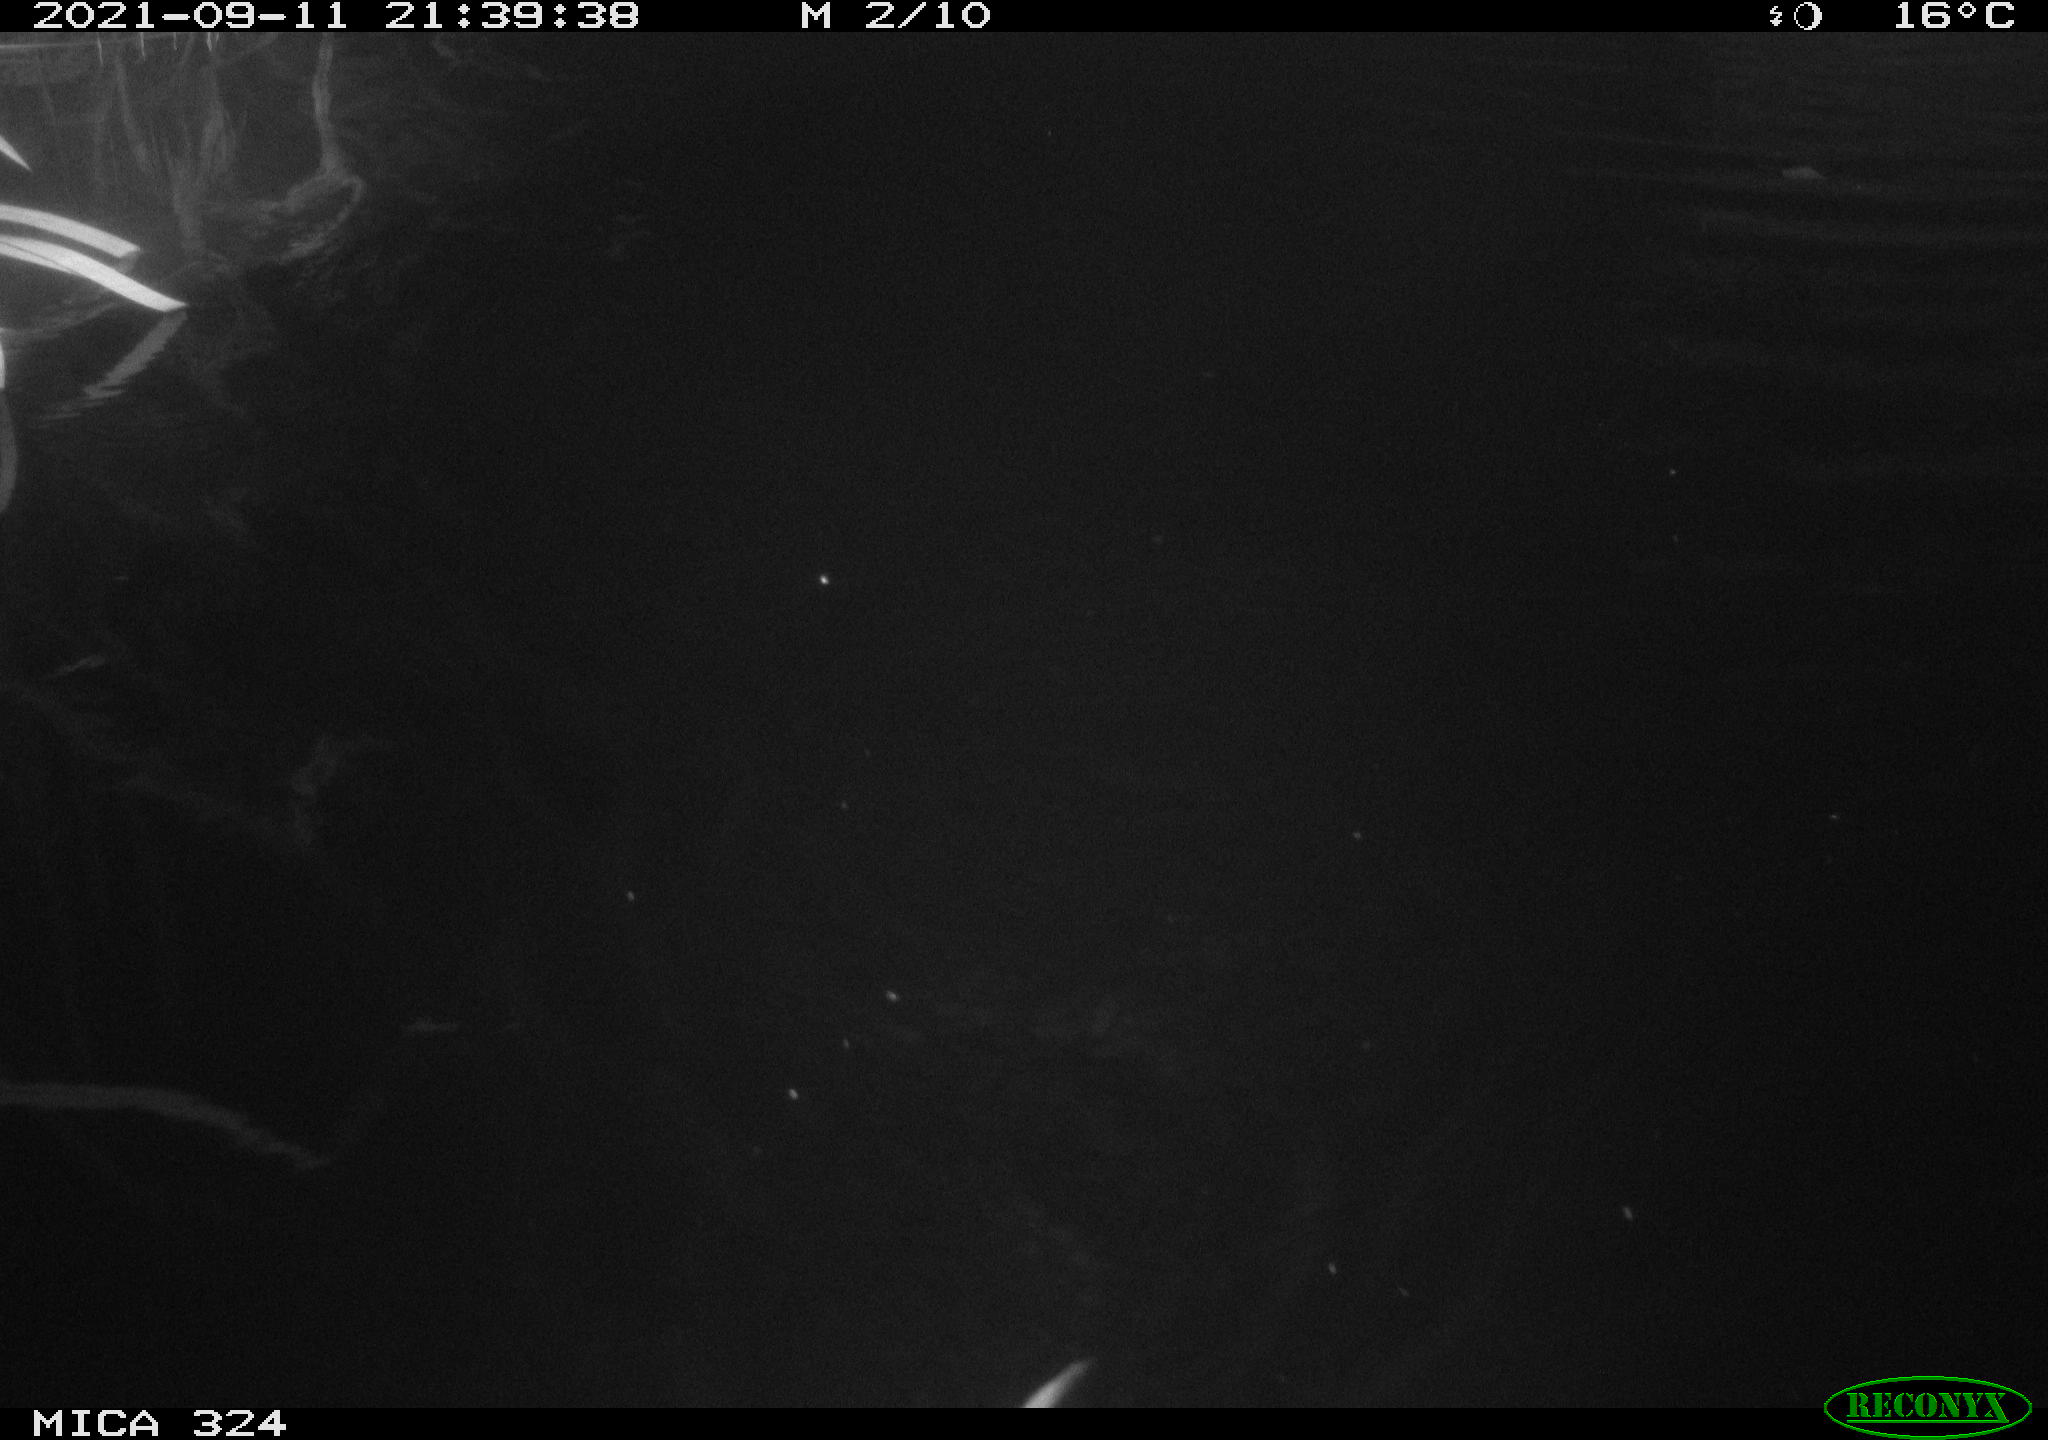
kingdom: Animalia
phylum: Chordata
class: Mammalia
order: Rodentia
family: Cricetidae
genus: Ondatra
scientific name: Ondatra zibethicus
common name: Muskrat
